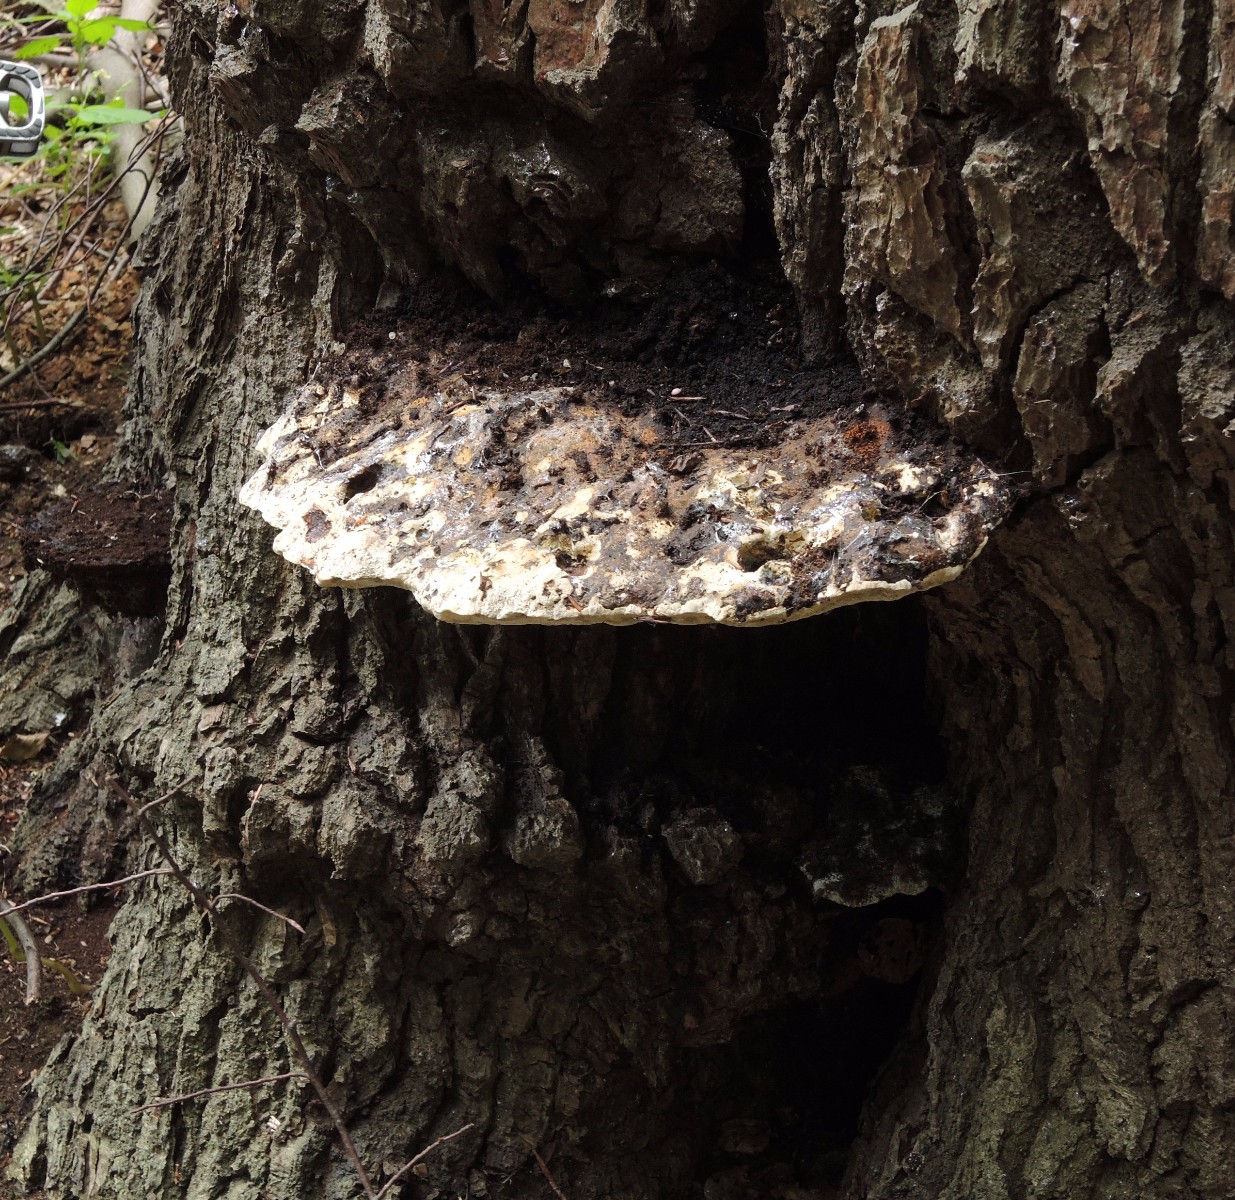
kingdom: Fungi
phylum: Basidiomycota
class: Agaricomycetes
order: Hymenochaetales
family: Hymenochaetaceae
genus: Pseudoinonotus
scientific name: Pseudoinonotus dryadeus
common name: ege-spejlporesvamp
